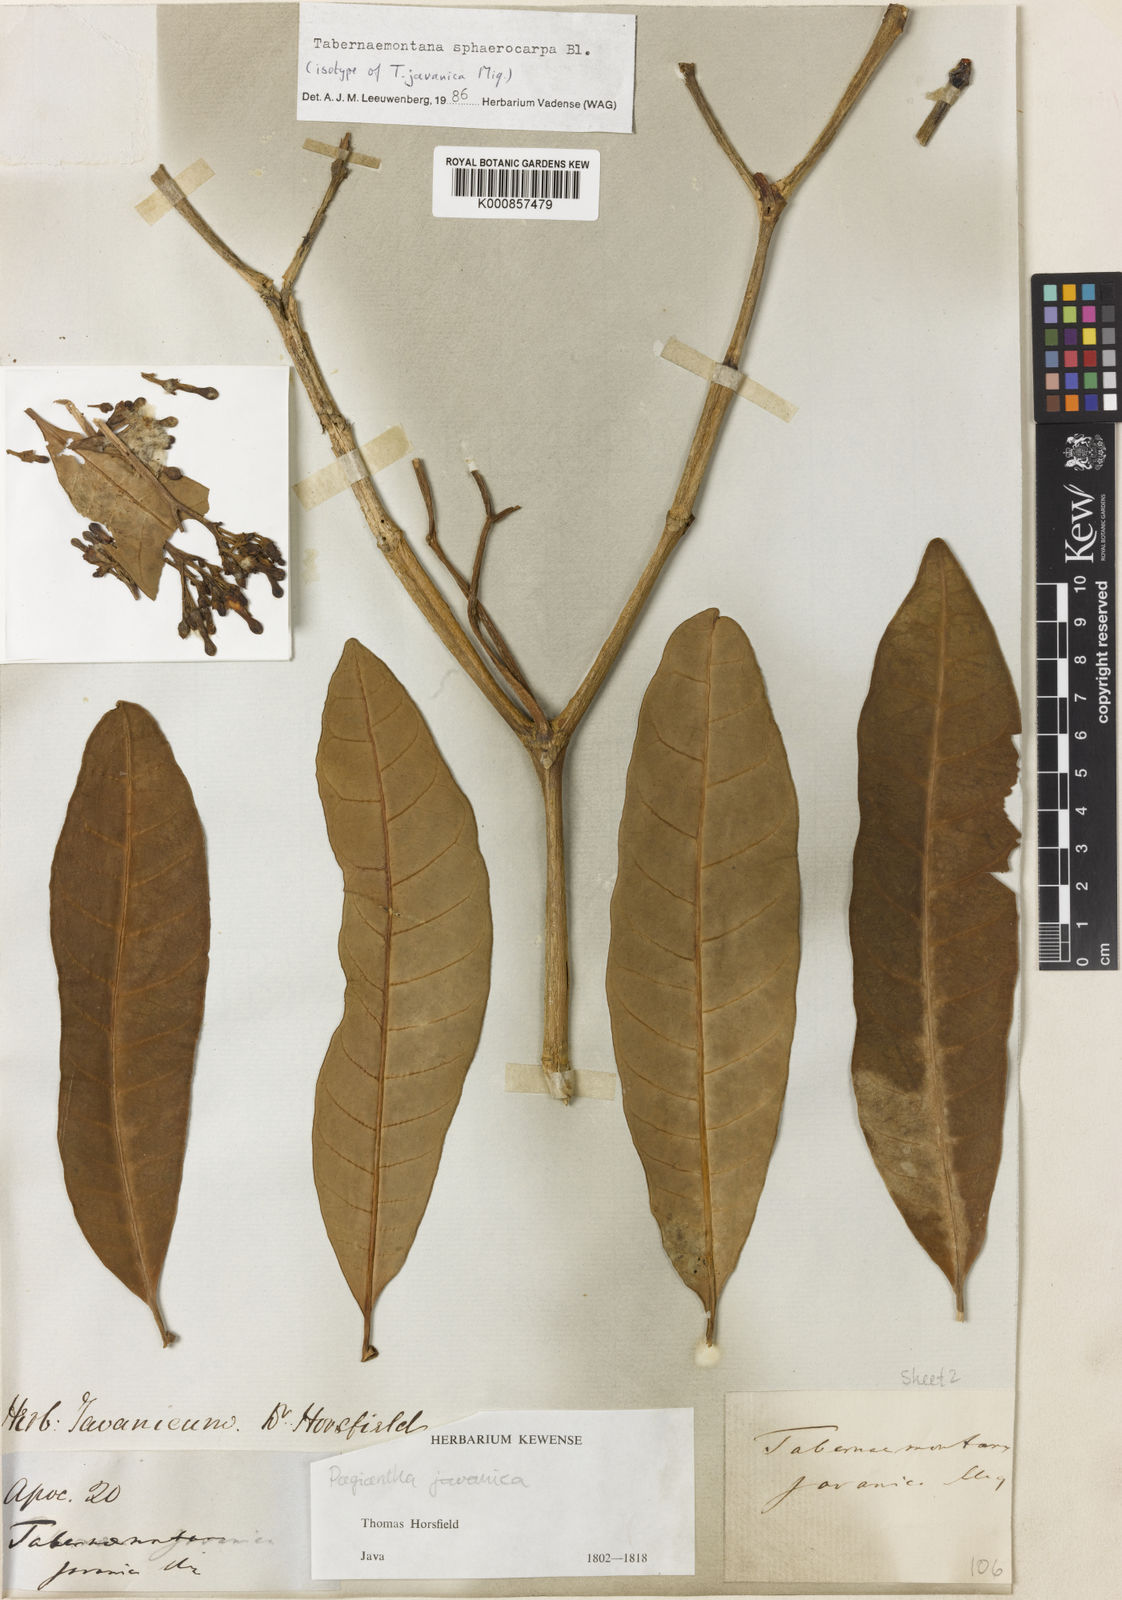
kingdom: Plantae
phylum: Tracheophyta
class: Magnoliopsida
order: Gentianales
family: Apocynaceae
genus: Tabernaemontana
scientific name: Tabernaemontana sphaerocarpa
